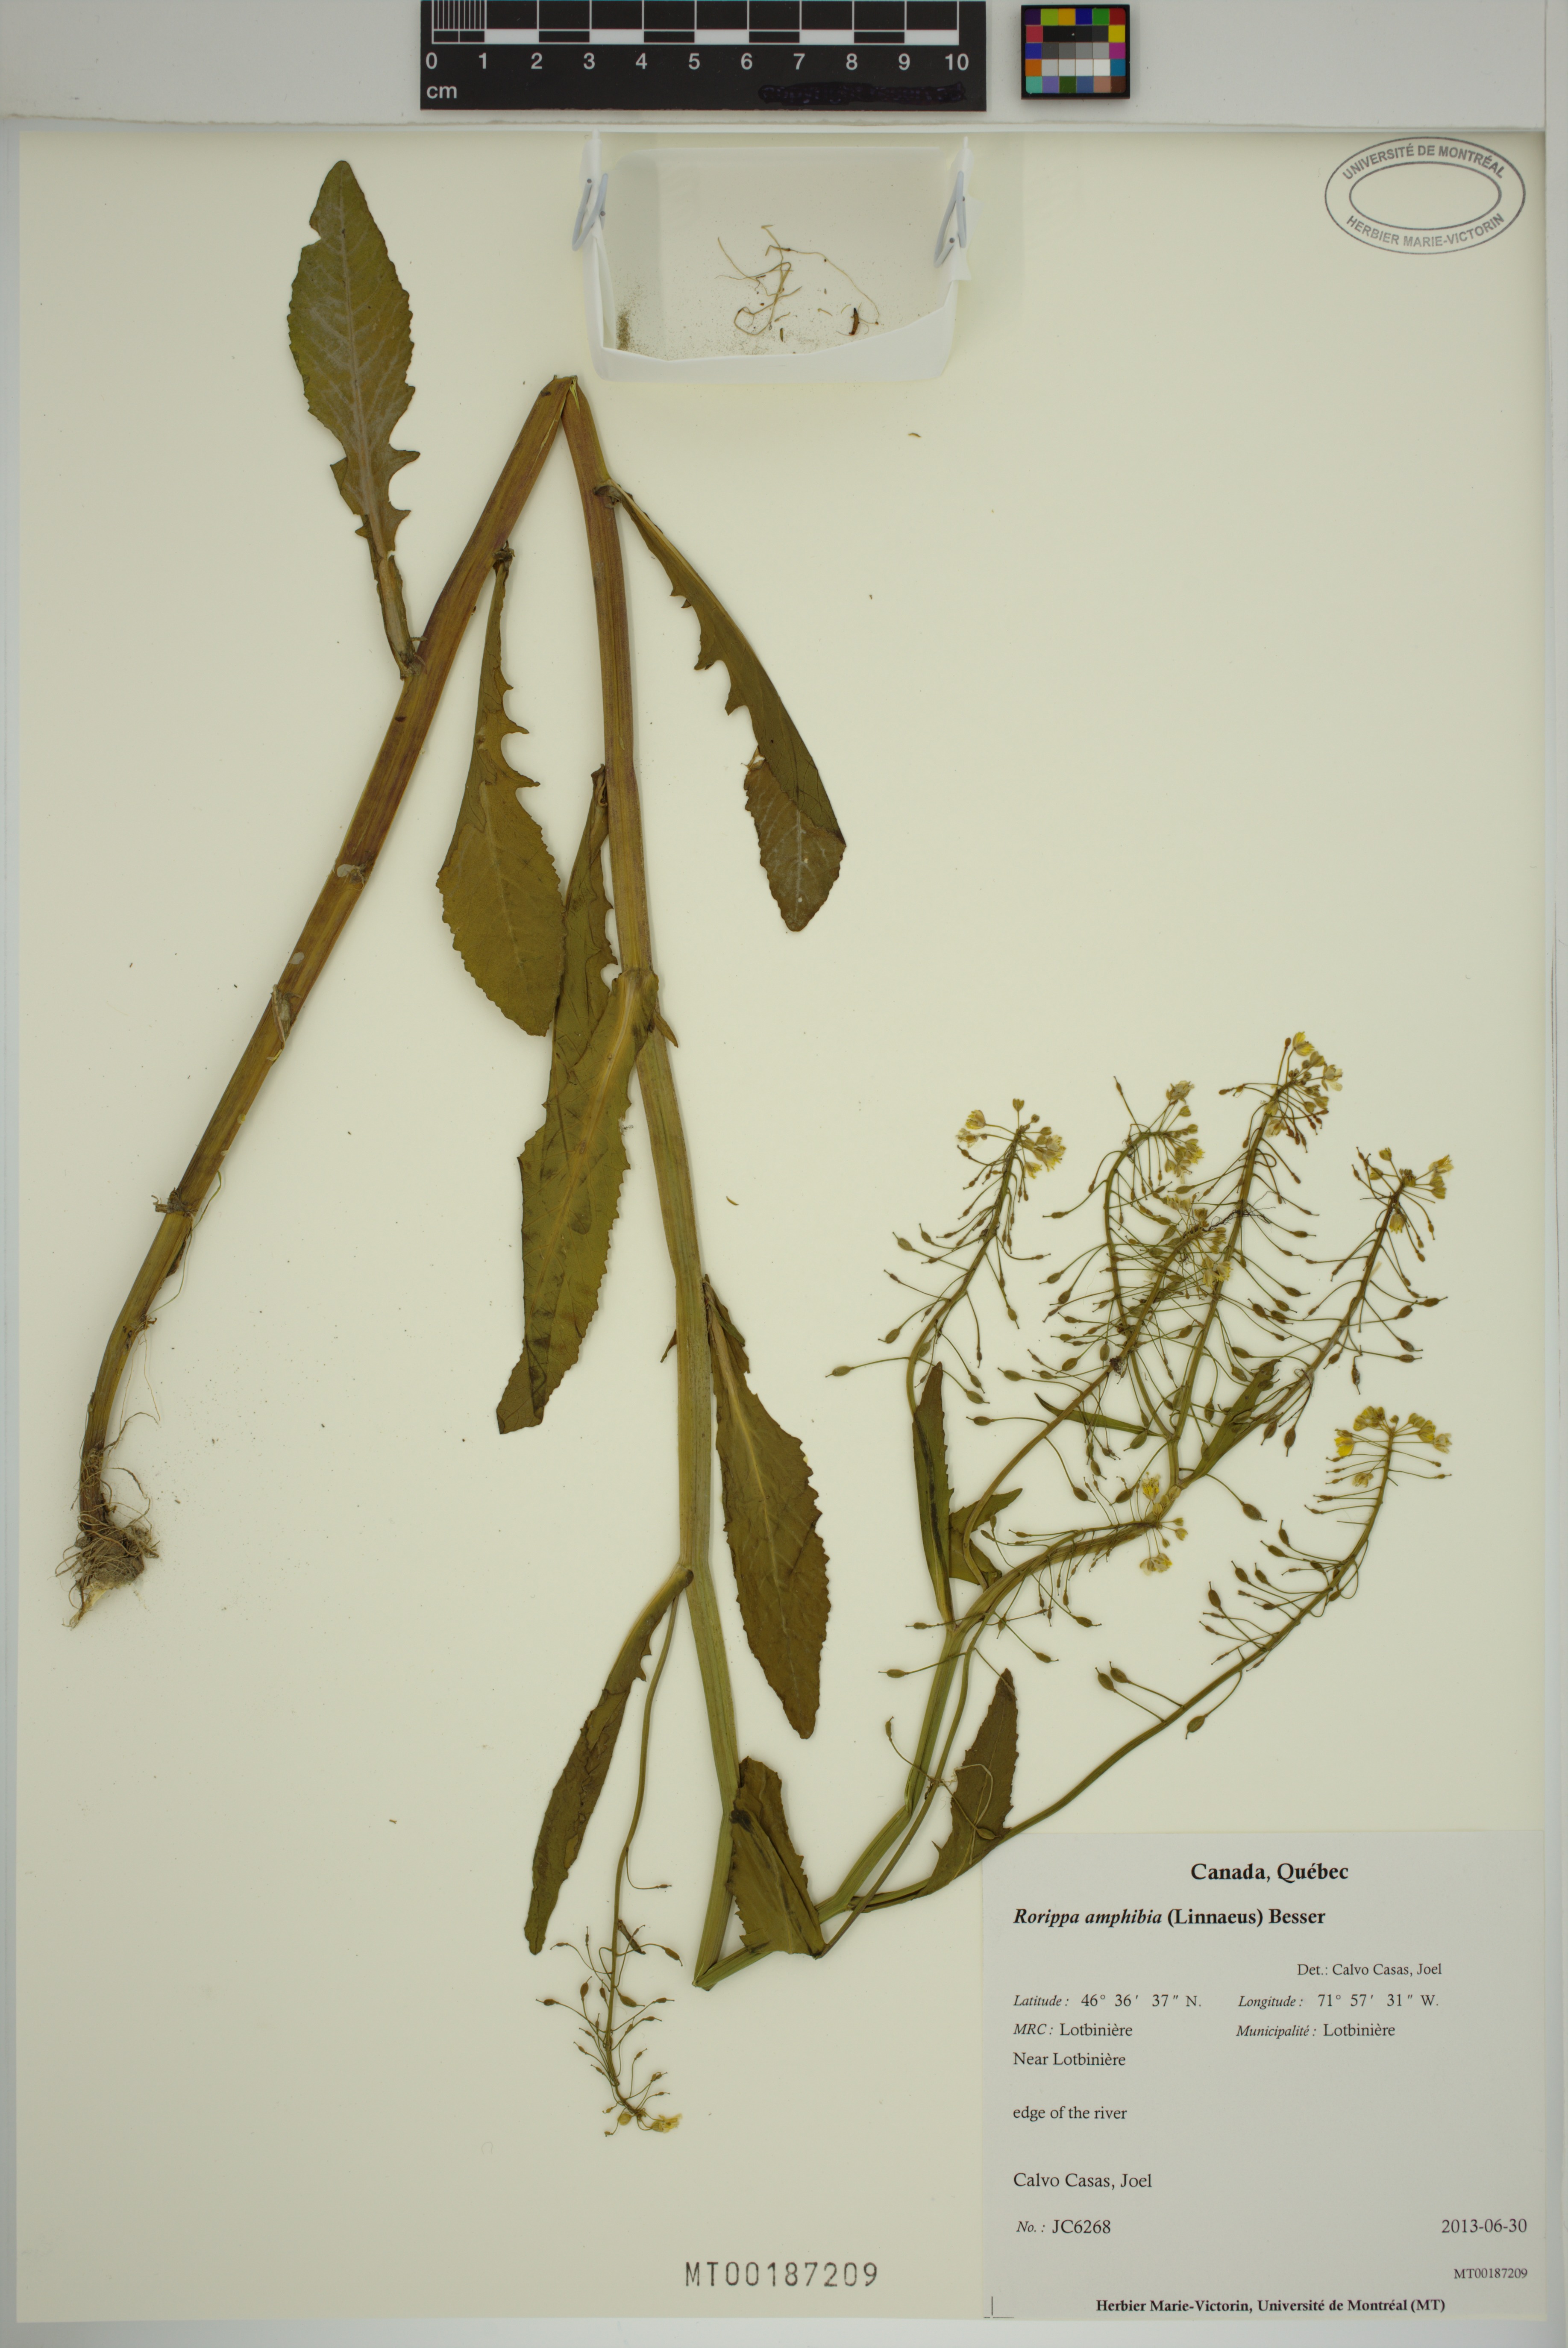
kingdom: Plantae
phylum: Tracheophyta
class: Magnoliopsida
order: Brassicales
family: Brassicaceae
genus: Rorippa
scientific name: Rorippa amphibia
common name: Great yellow-cress
